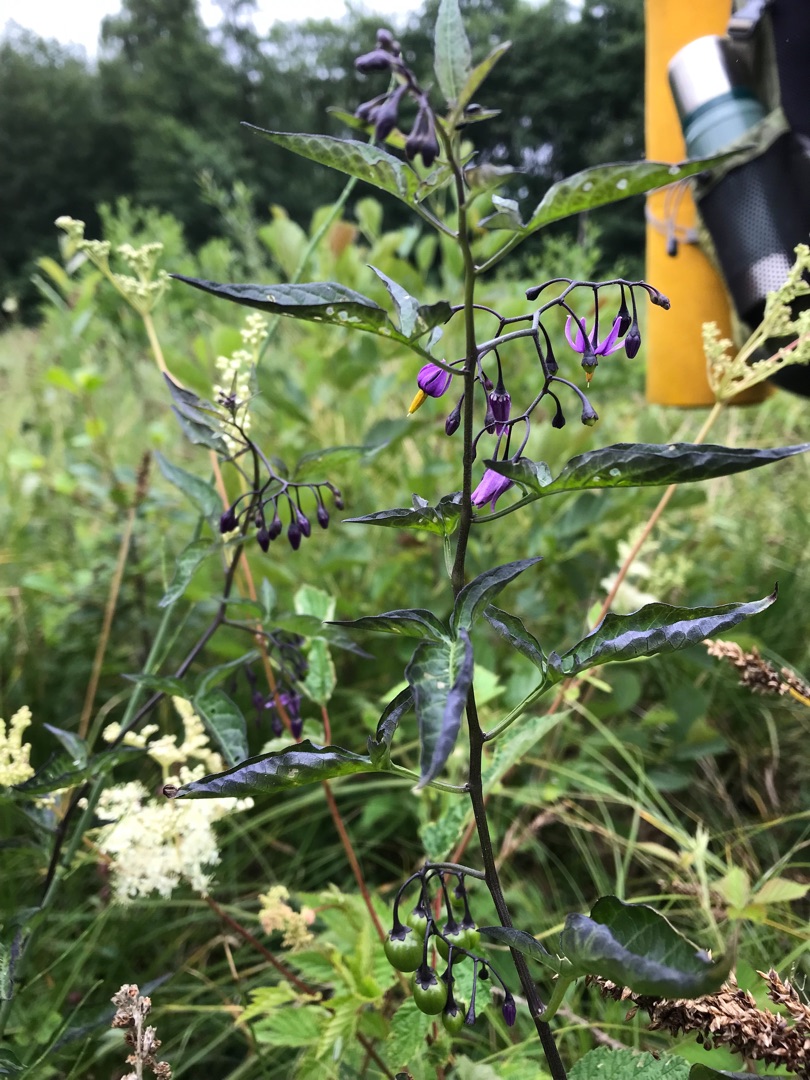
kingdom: Plantae
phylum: Tracheophyta
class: Magnoliopsida
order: Solanales
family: Solanaceae
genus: Solanum
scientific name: Solanum dulcamara
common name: Bittersød natskygge
